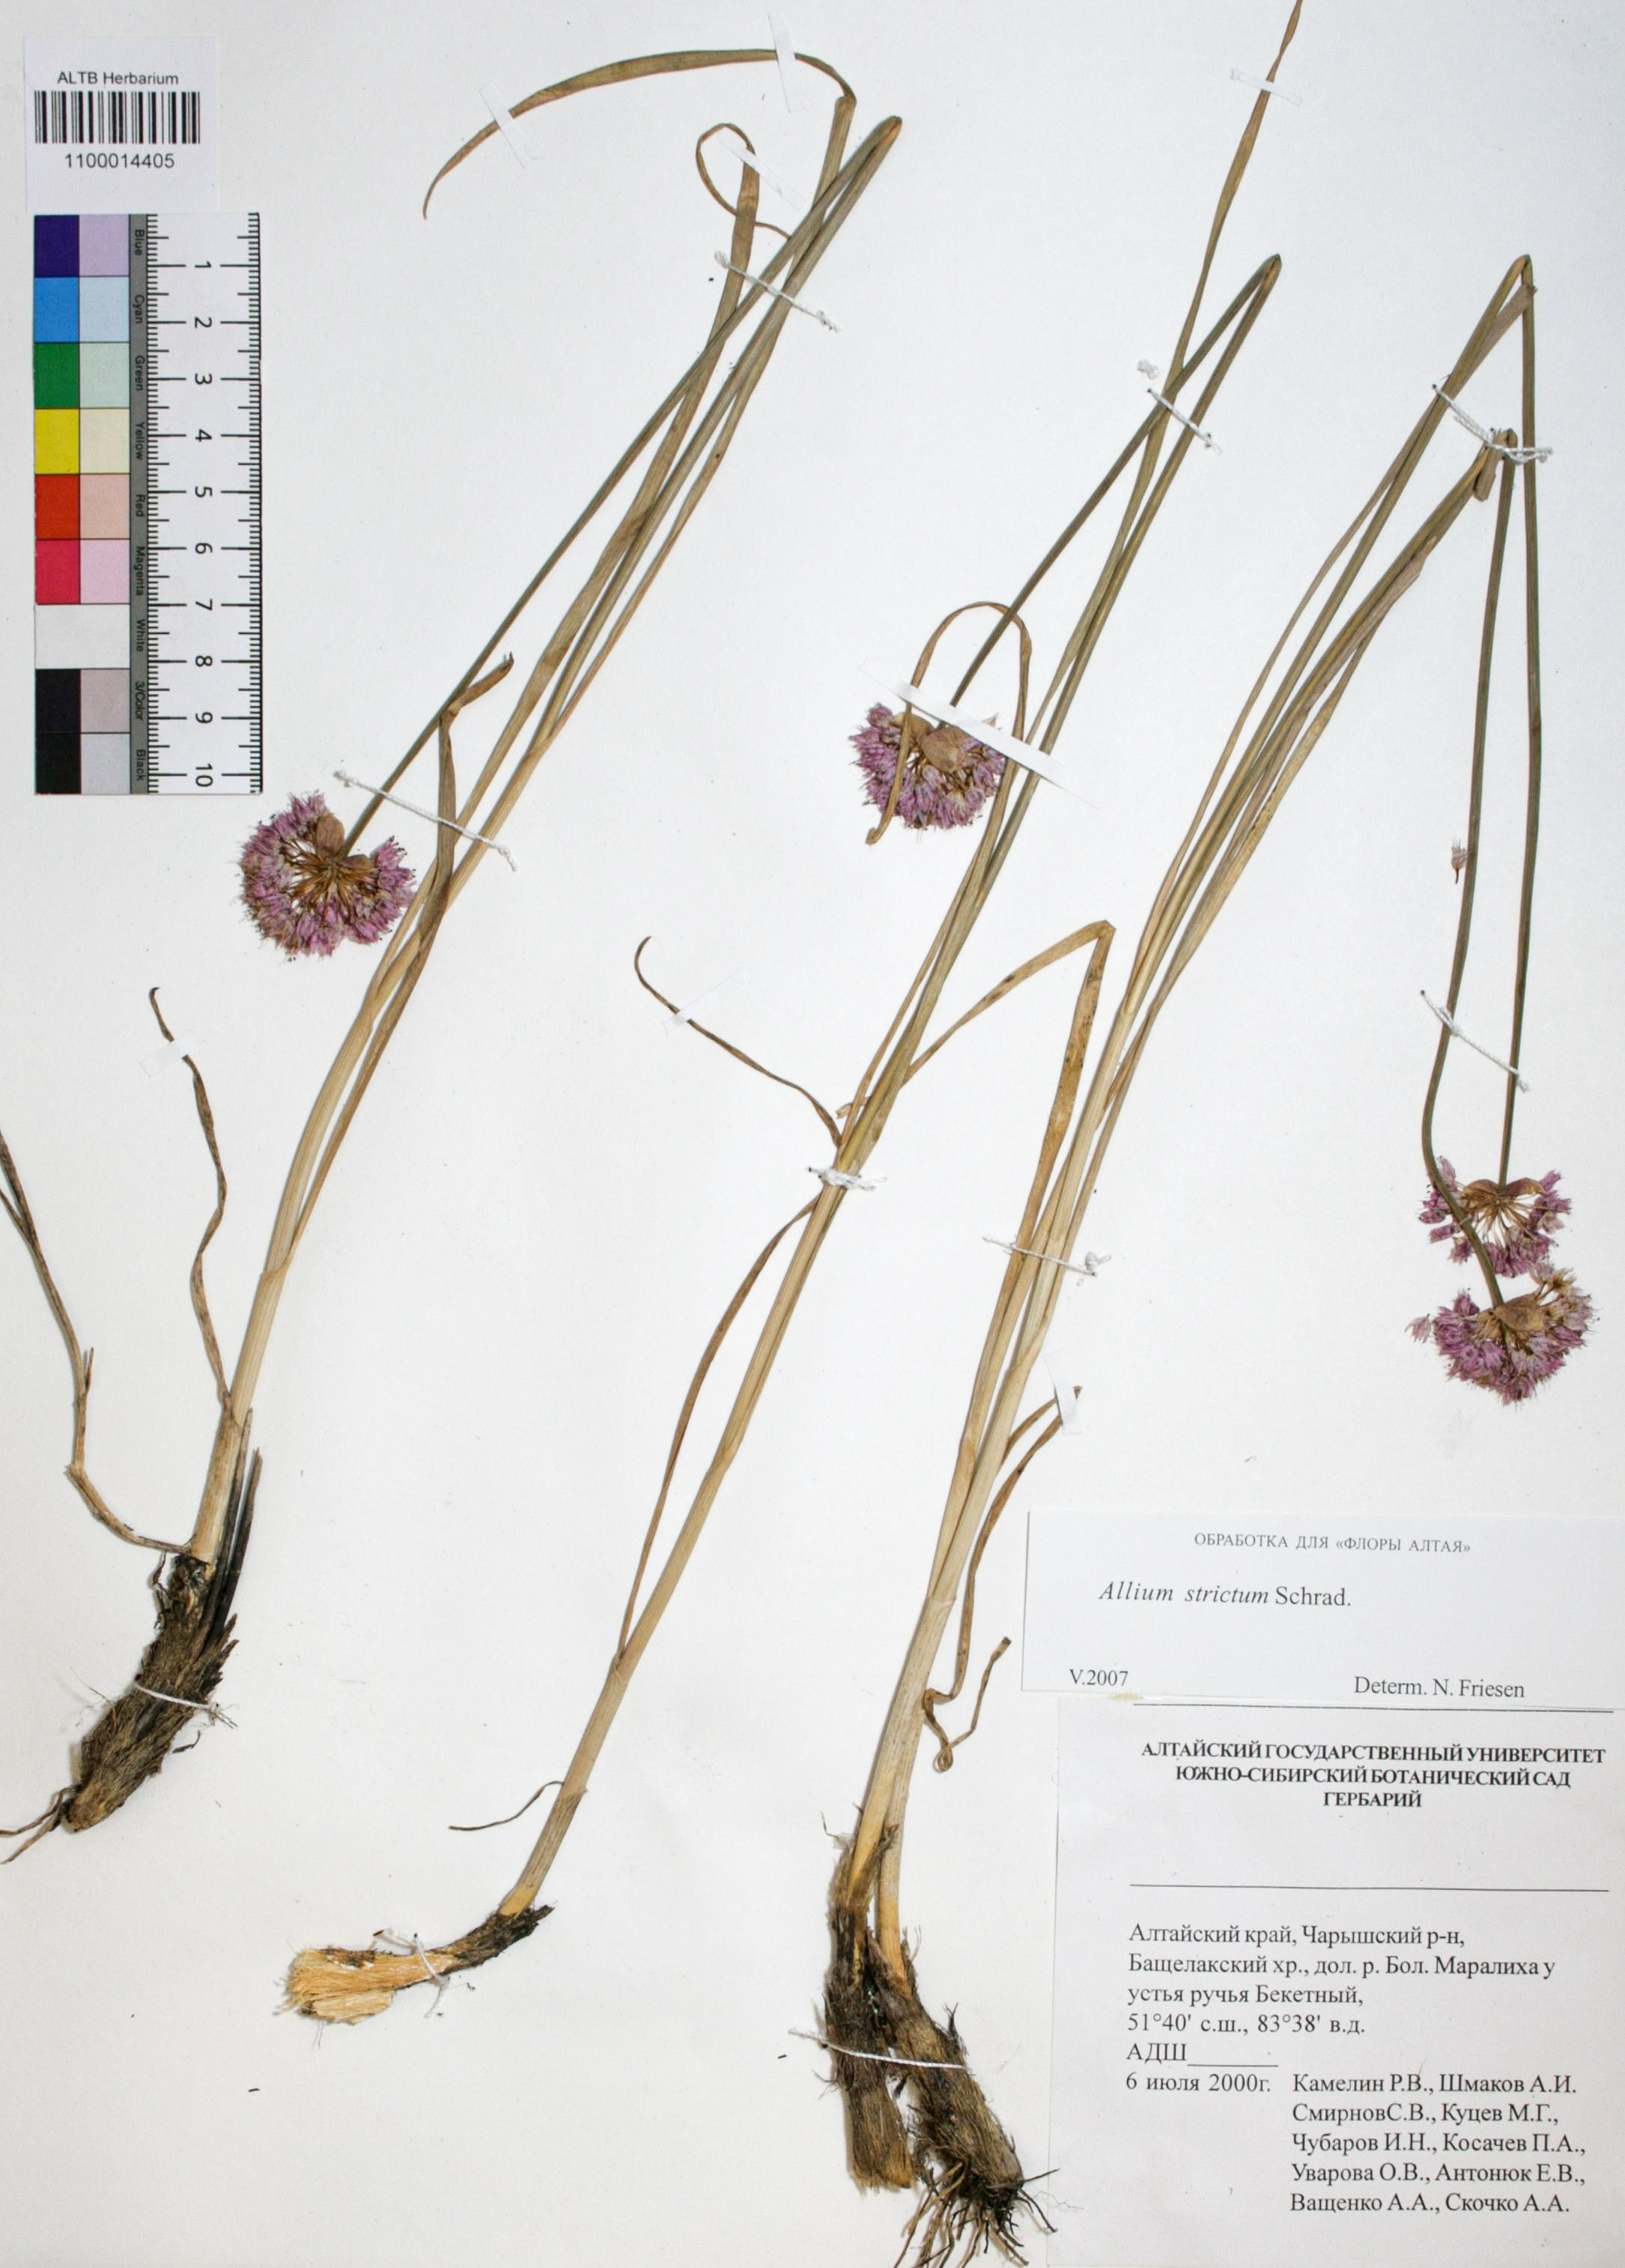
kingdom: Plantae
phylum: Tracheophyta
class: Liliopsida
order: Asparagales
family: Amaryllidaceae
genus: Allium
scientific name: Allium strictum
